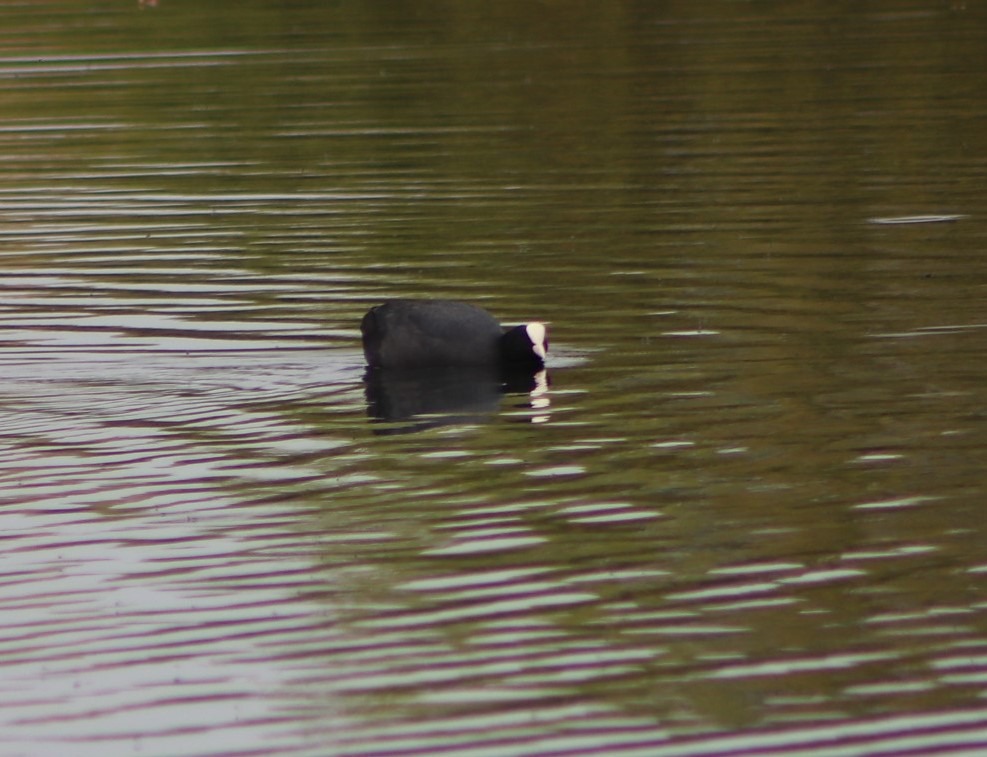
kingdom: Animalia
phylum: Chordata
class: Aves
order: Gruiformes
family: Rallidae
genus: Fulica
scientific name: Fulica atra
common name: Blishøne
